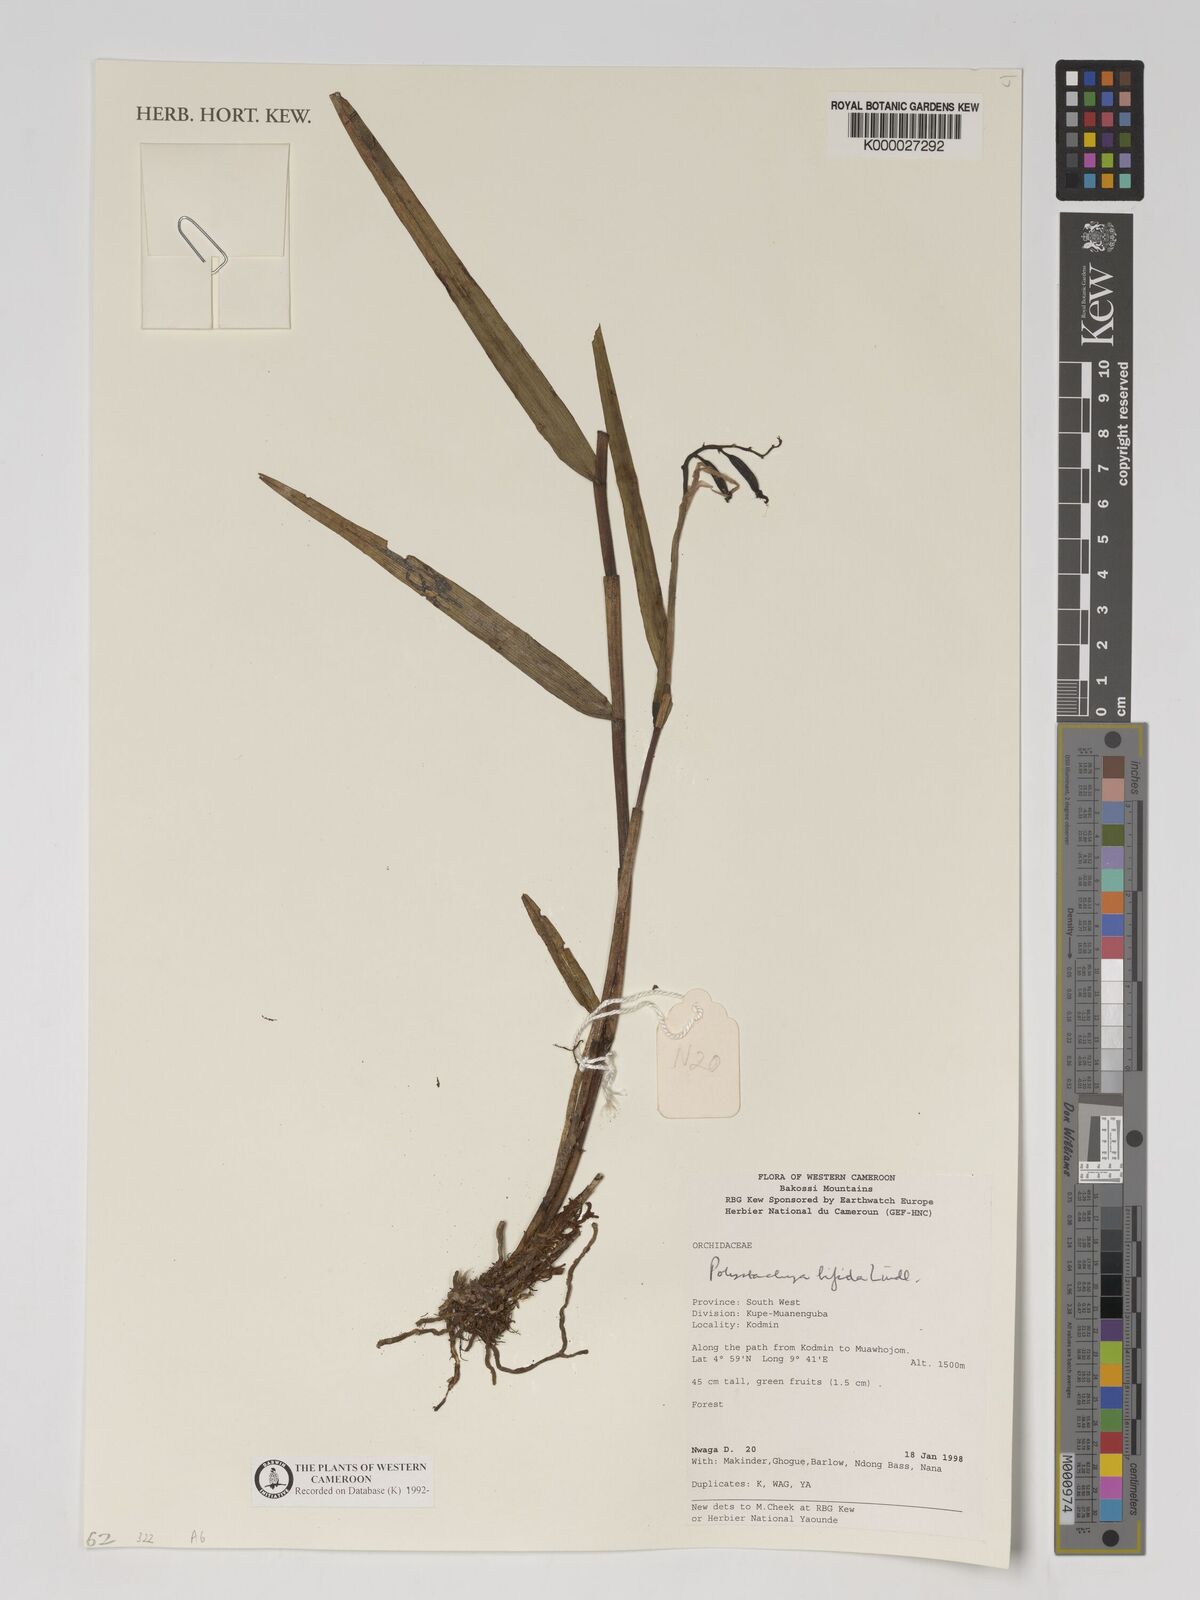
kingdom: Plantae
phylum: Tracheophyta
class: Liliopsida
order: Asparagales
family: Orchidaceae
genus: Polystachya
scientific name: Polystachya bifida
